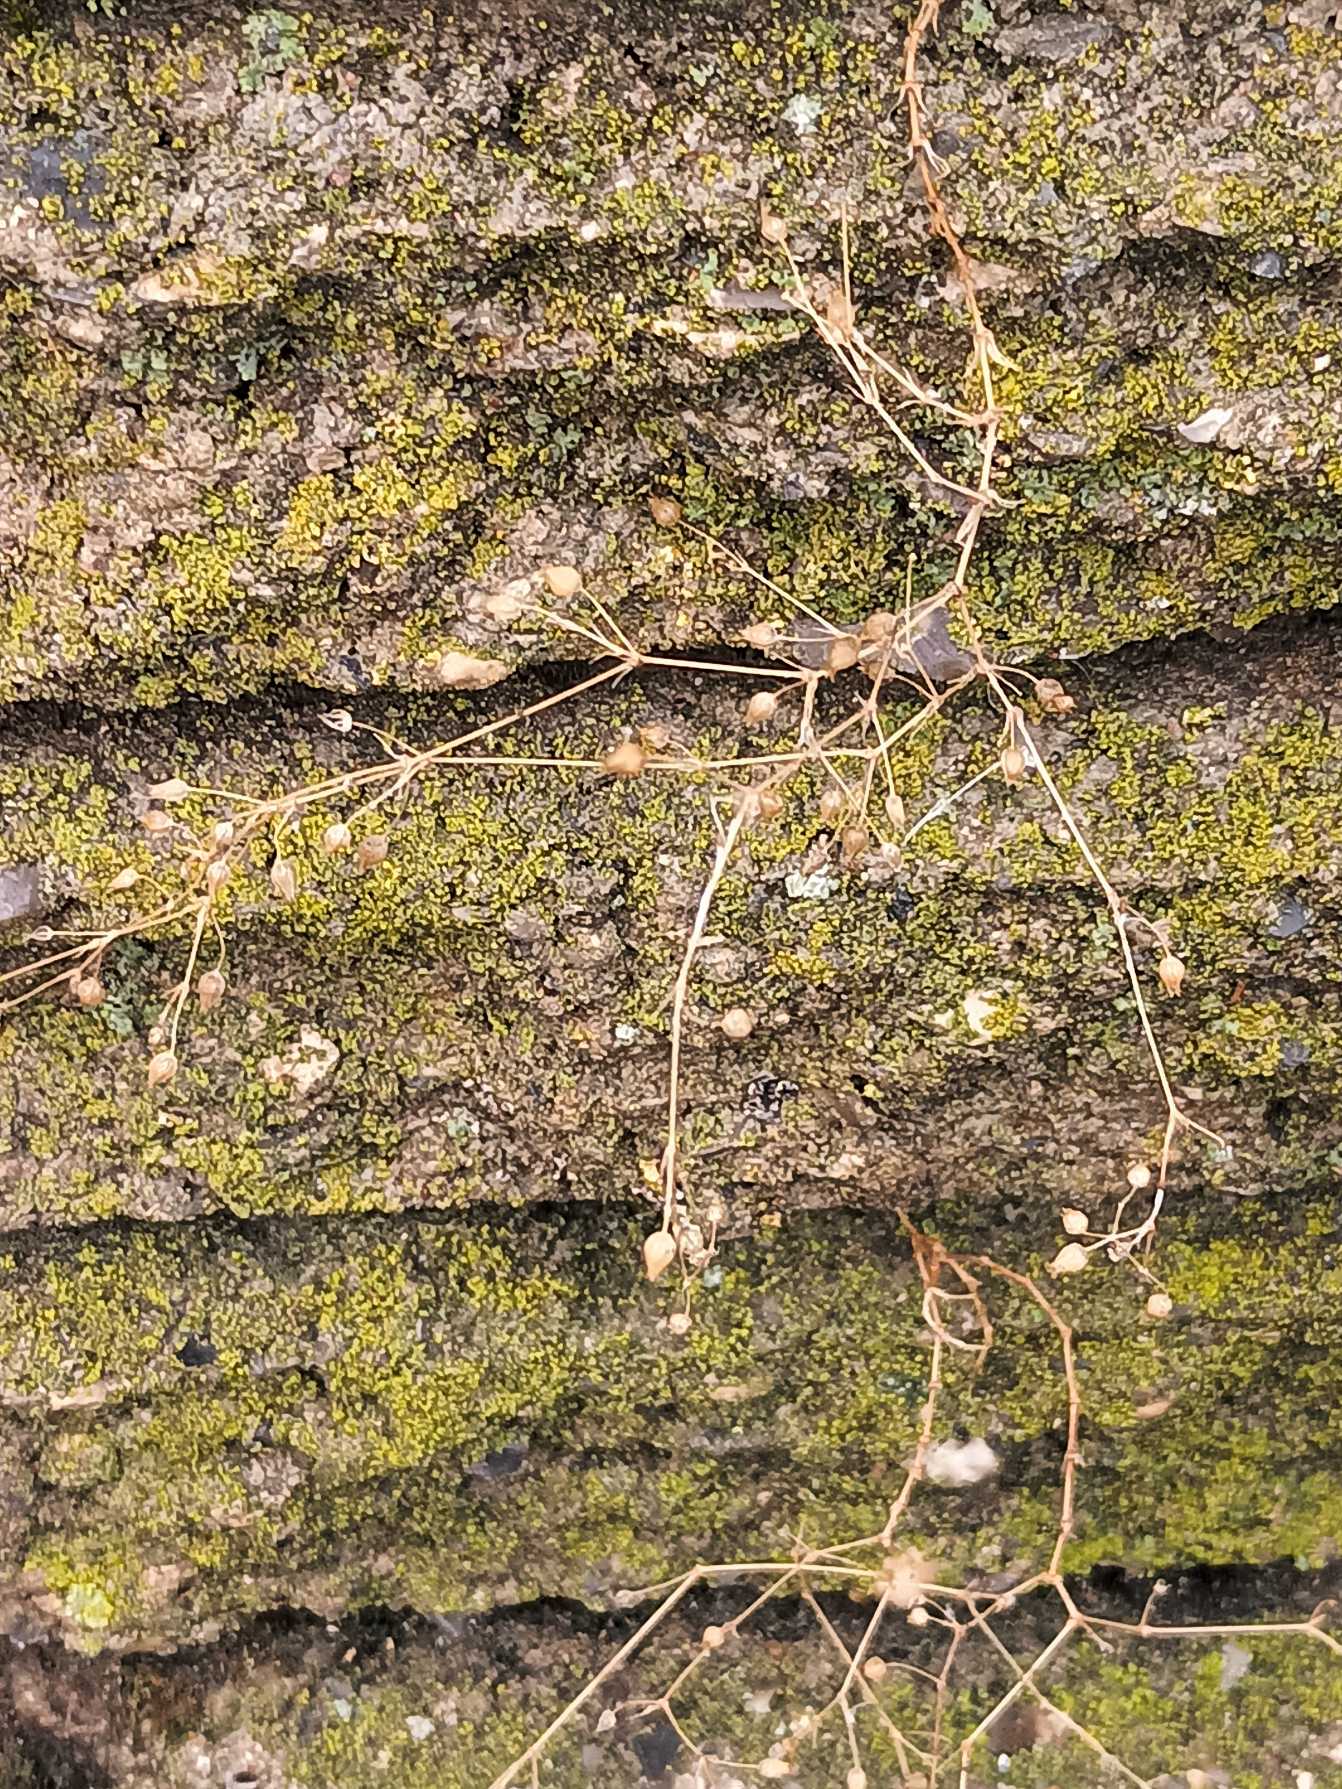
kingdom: Plantae
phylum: Tracheophyta
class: Magnoliopsida
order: Caryophyllales
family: Caryophyllaceae
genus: Arenaria
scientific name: Arenaria serpyllifolia
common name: Almindelig markarve
